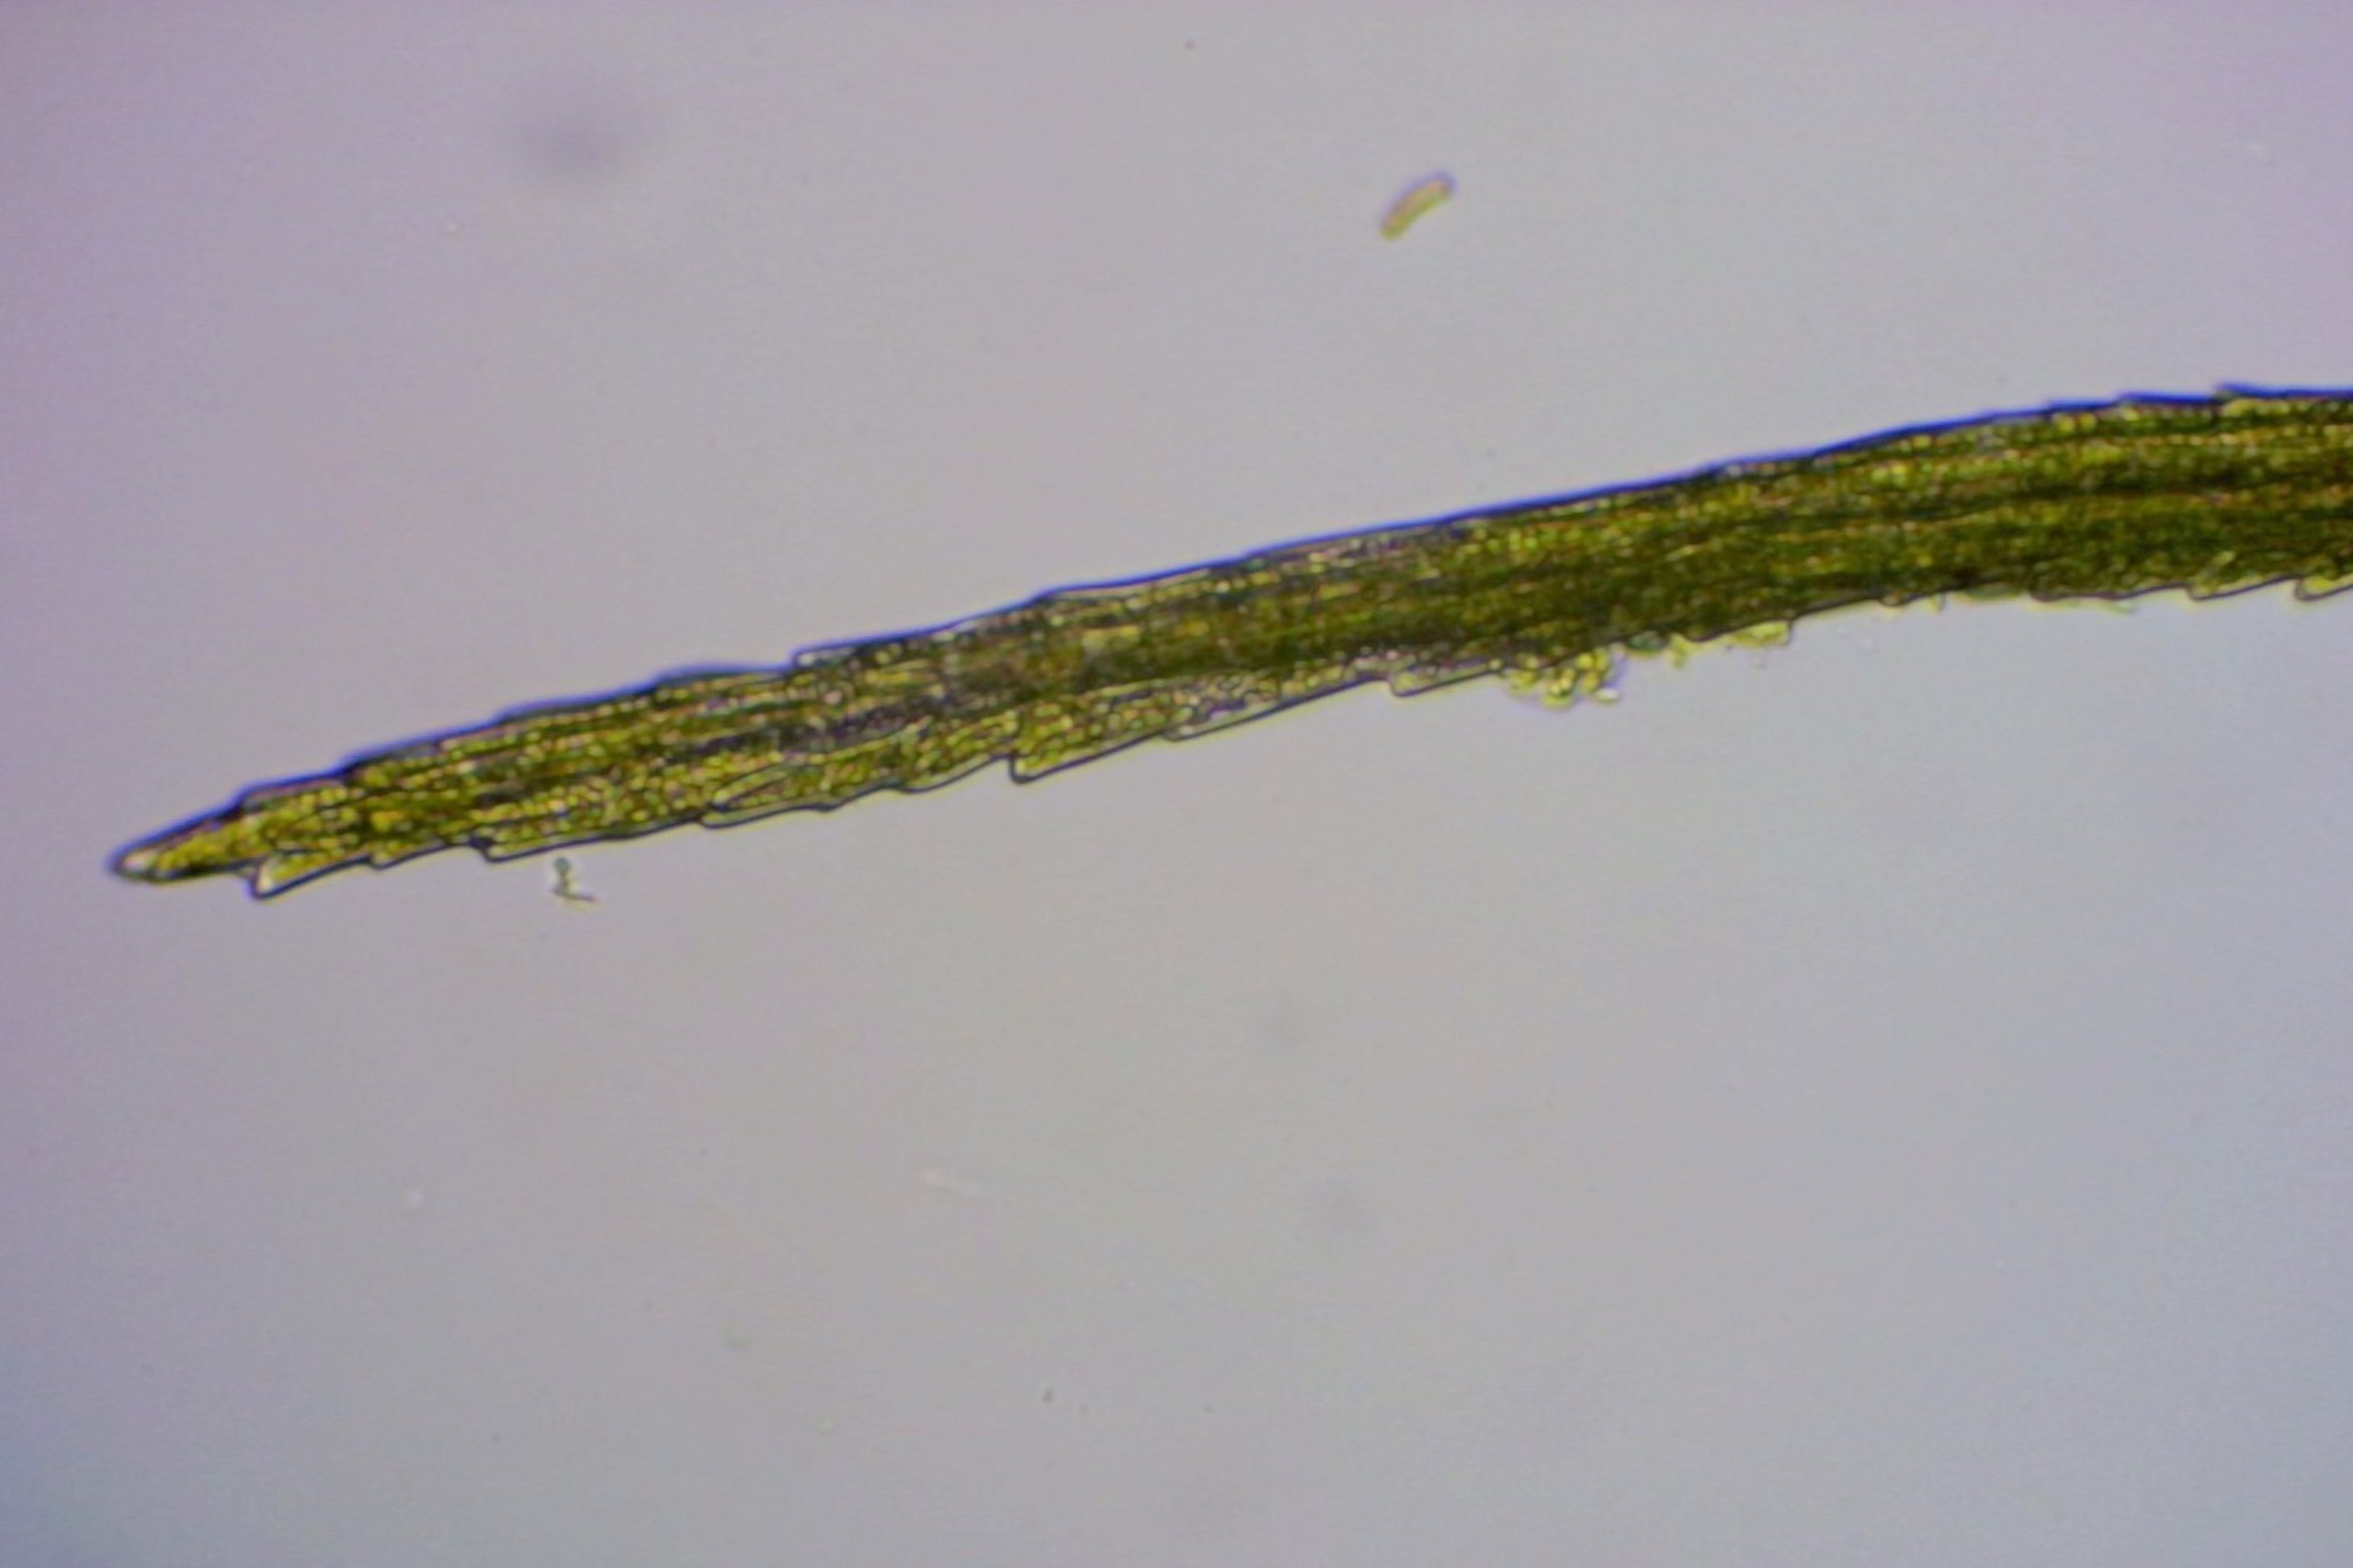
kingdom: Plantae
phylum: Bryophyta
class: Bryopsida
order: Dicranales
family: Dicranellaceae
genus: Dicranella
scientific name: Dicranella heteromalla
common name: Almindelig fløjlsmos
